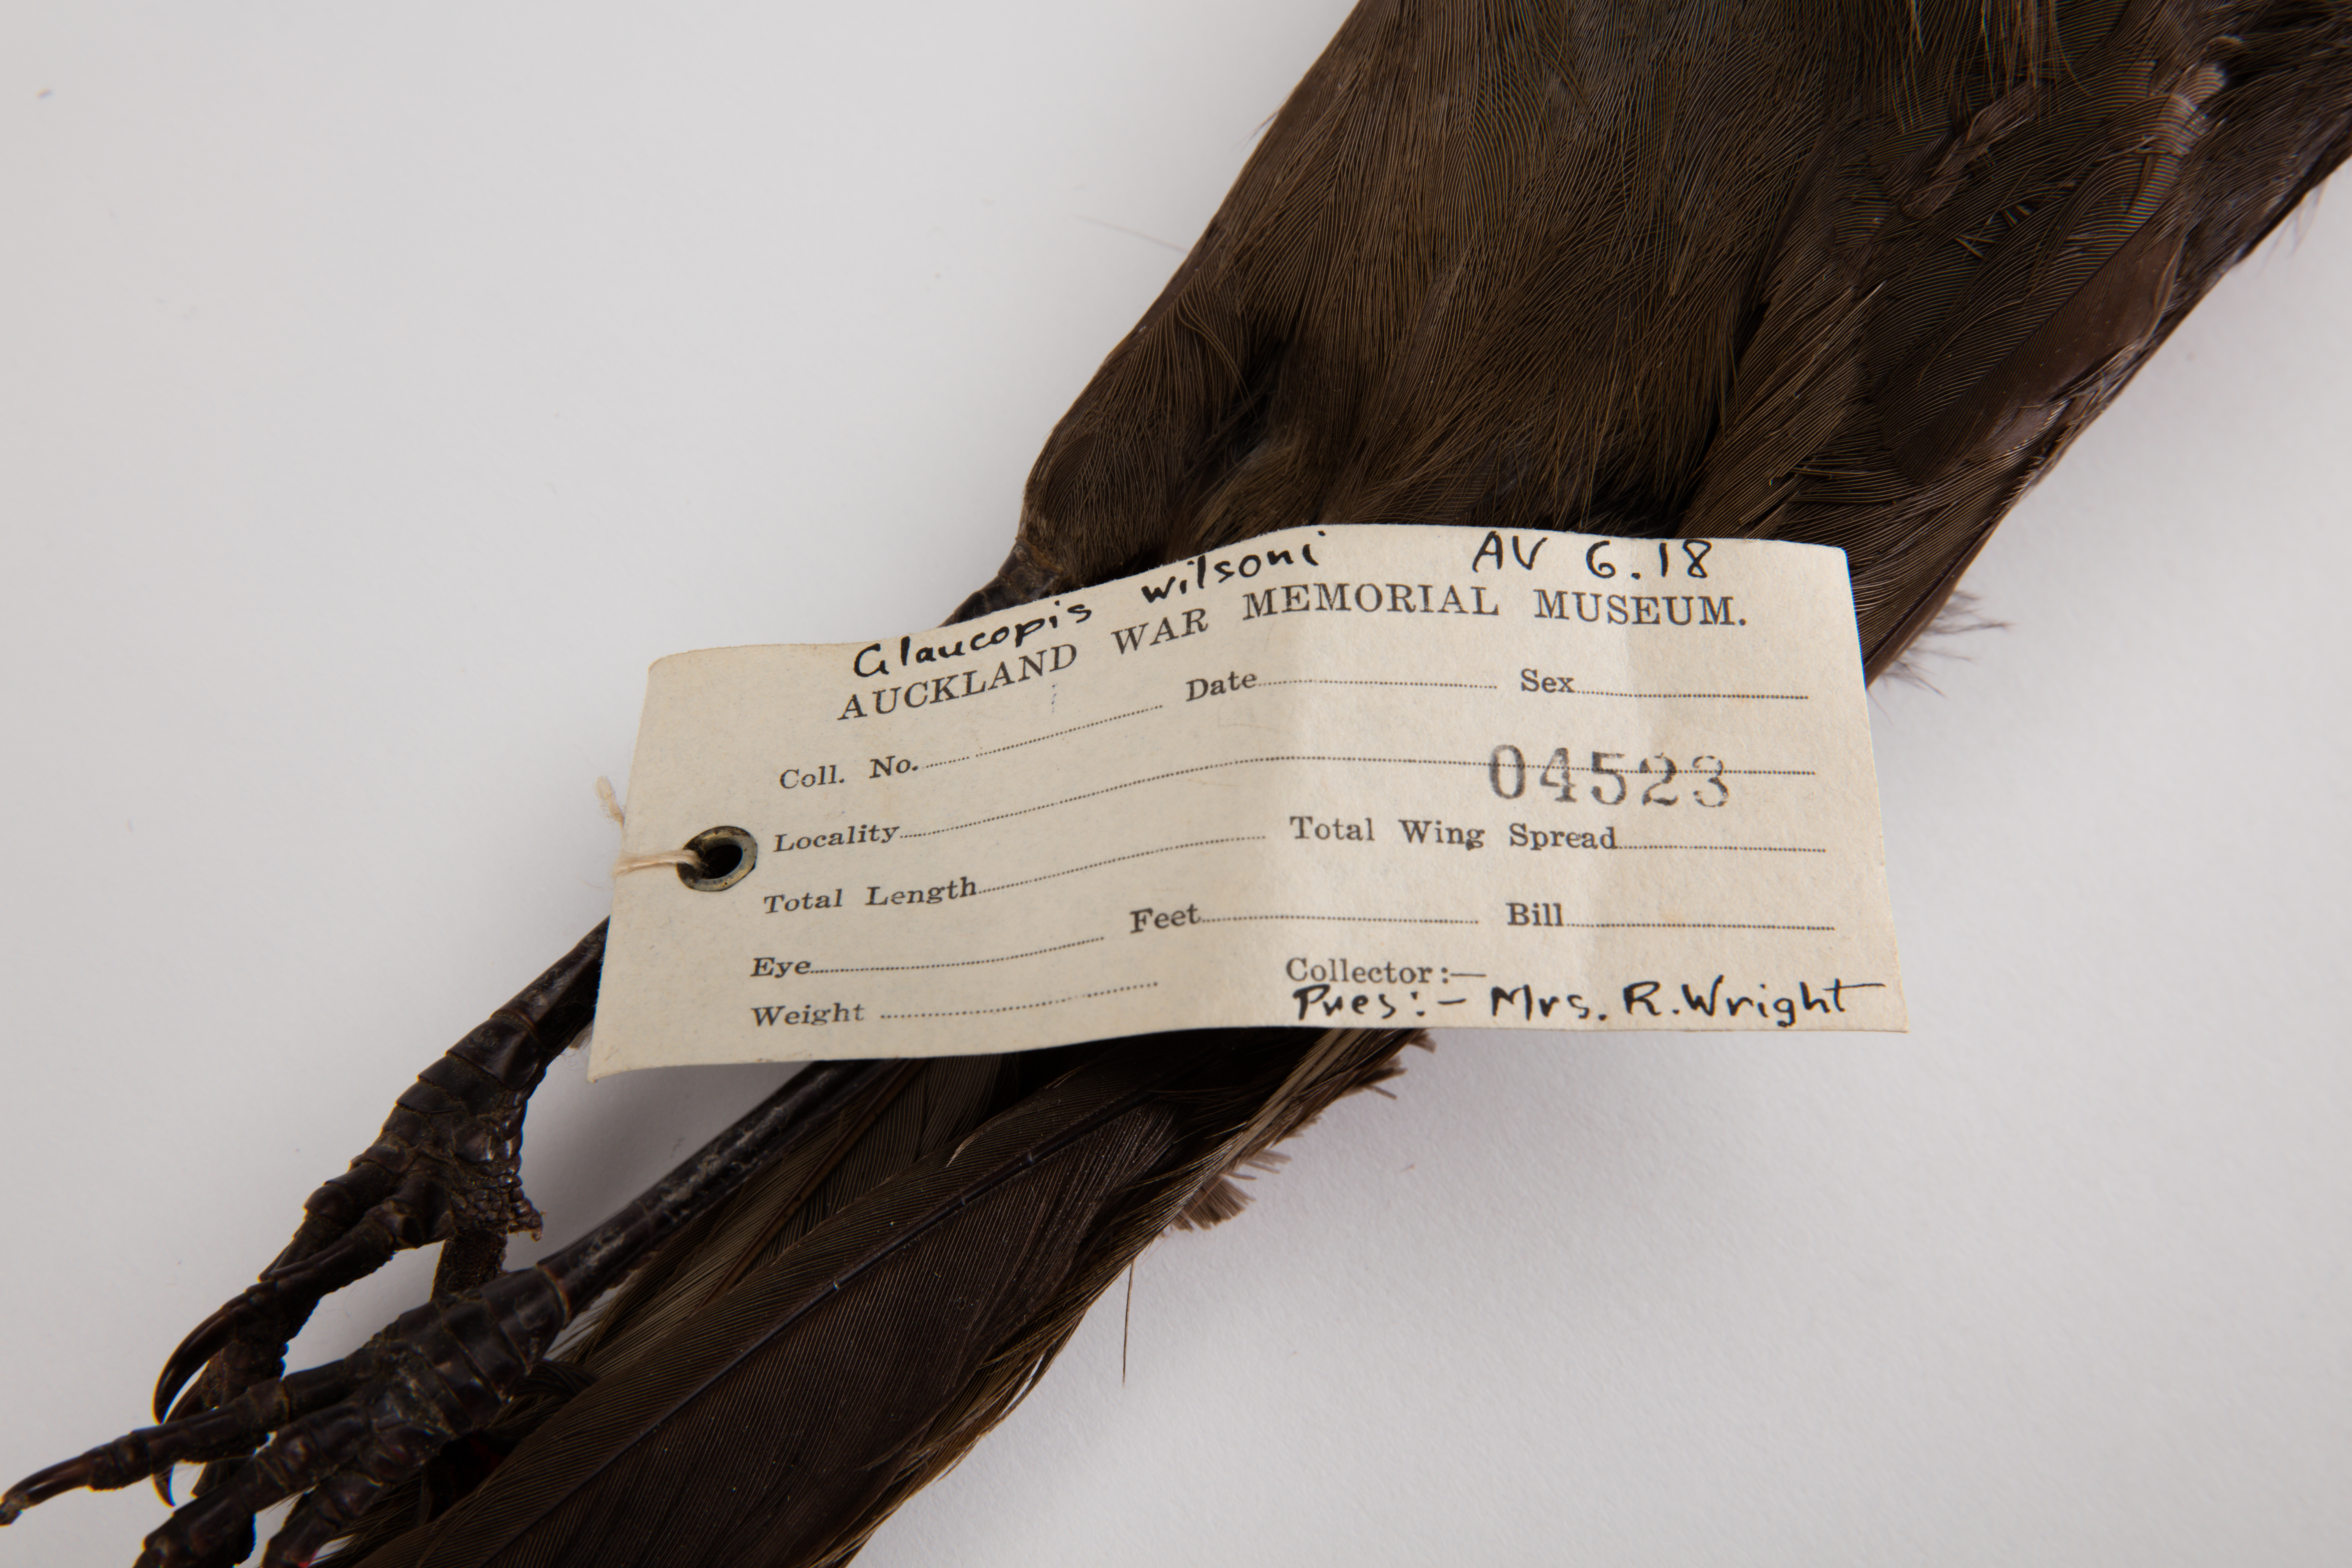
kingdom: Animalia
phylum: Chordata
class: Aves
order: Passeriformes
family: Callaeatidae
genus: Callaeas
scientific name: Callaeas cinereus
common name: South island kokako
